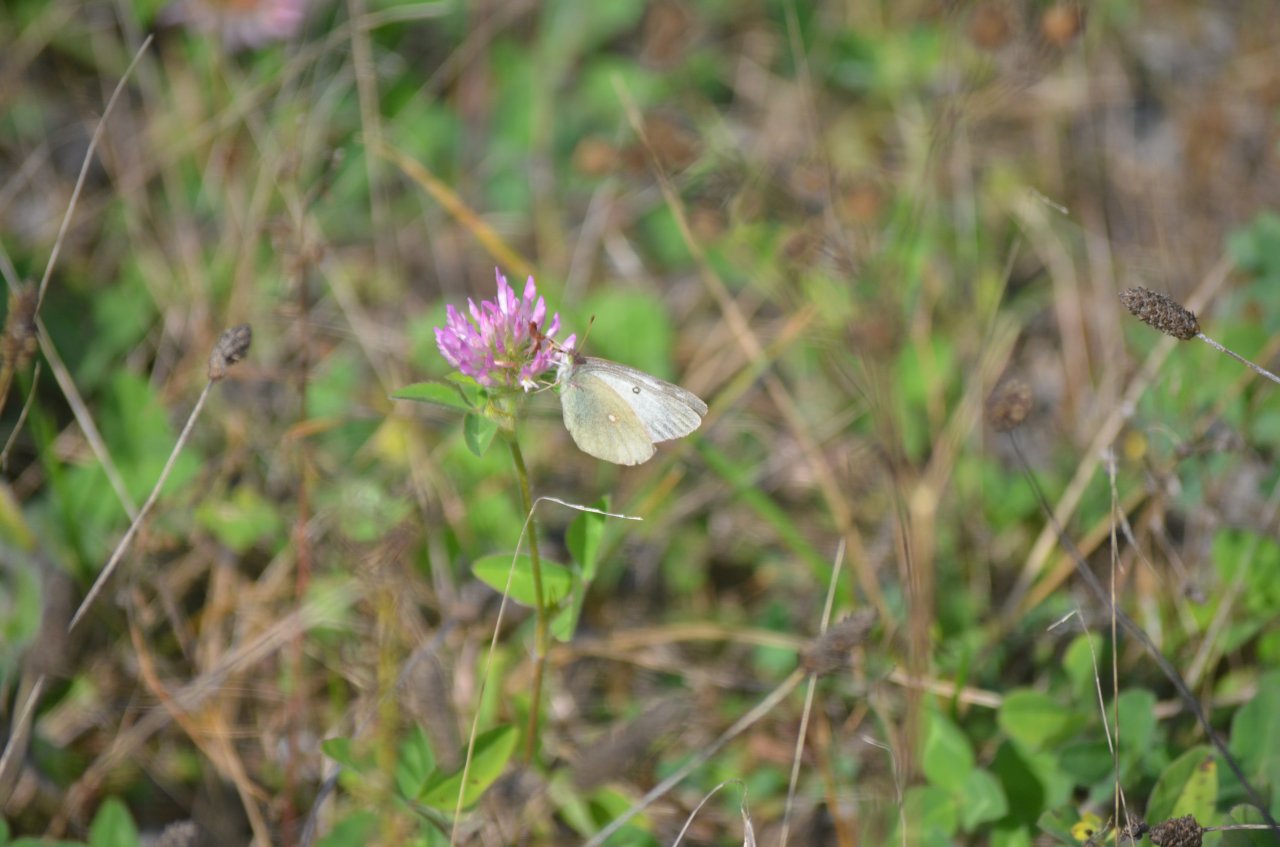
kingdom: Animalia
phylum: Arthropoda
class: Insecta
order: Lepidoptera
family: Pieridae
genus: Colias
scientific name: Colias philodice
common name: Clouded Sulphur
